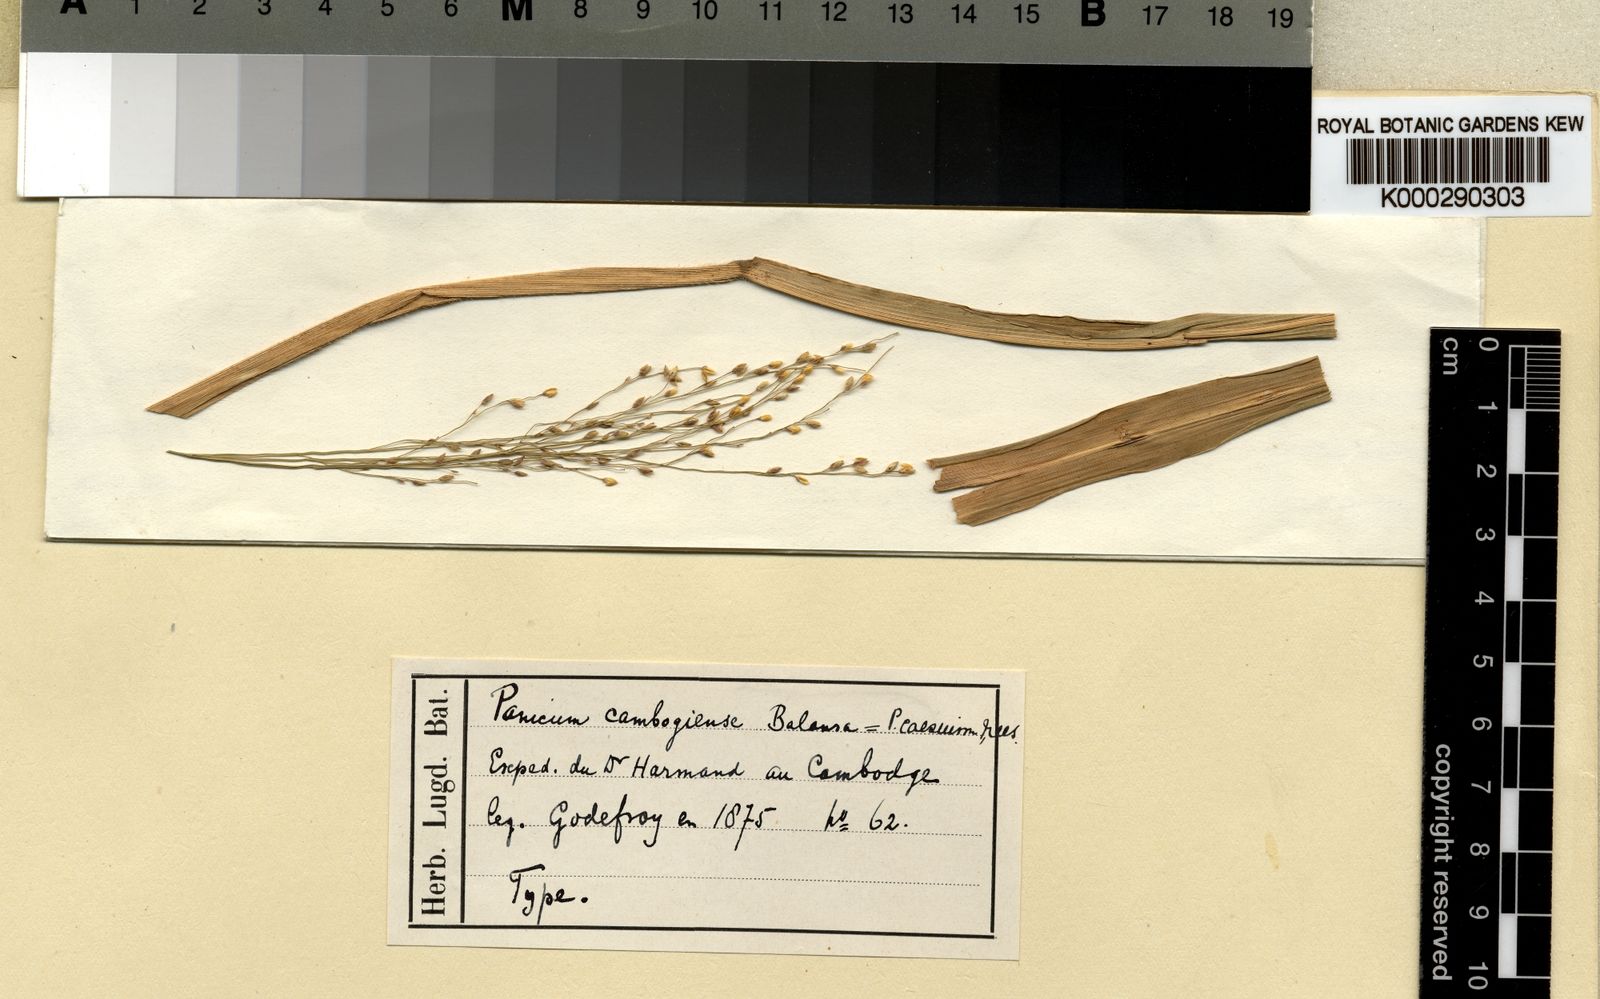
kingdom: Plantae
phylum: Tracheophyta
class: Liliopsida
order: Poales
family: Poaceae
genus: Panicum
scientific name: Panicum luzonense
